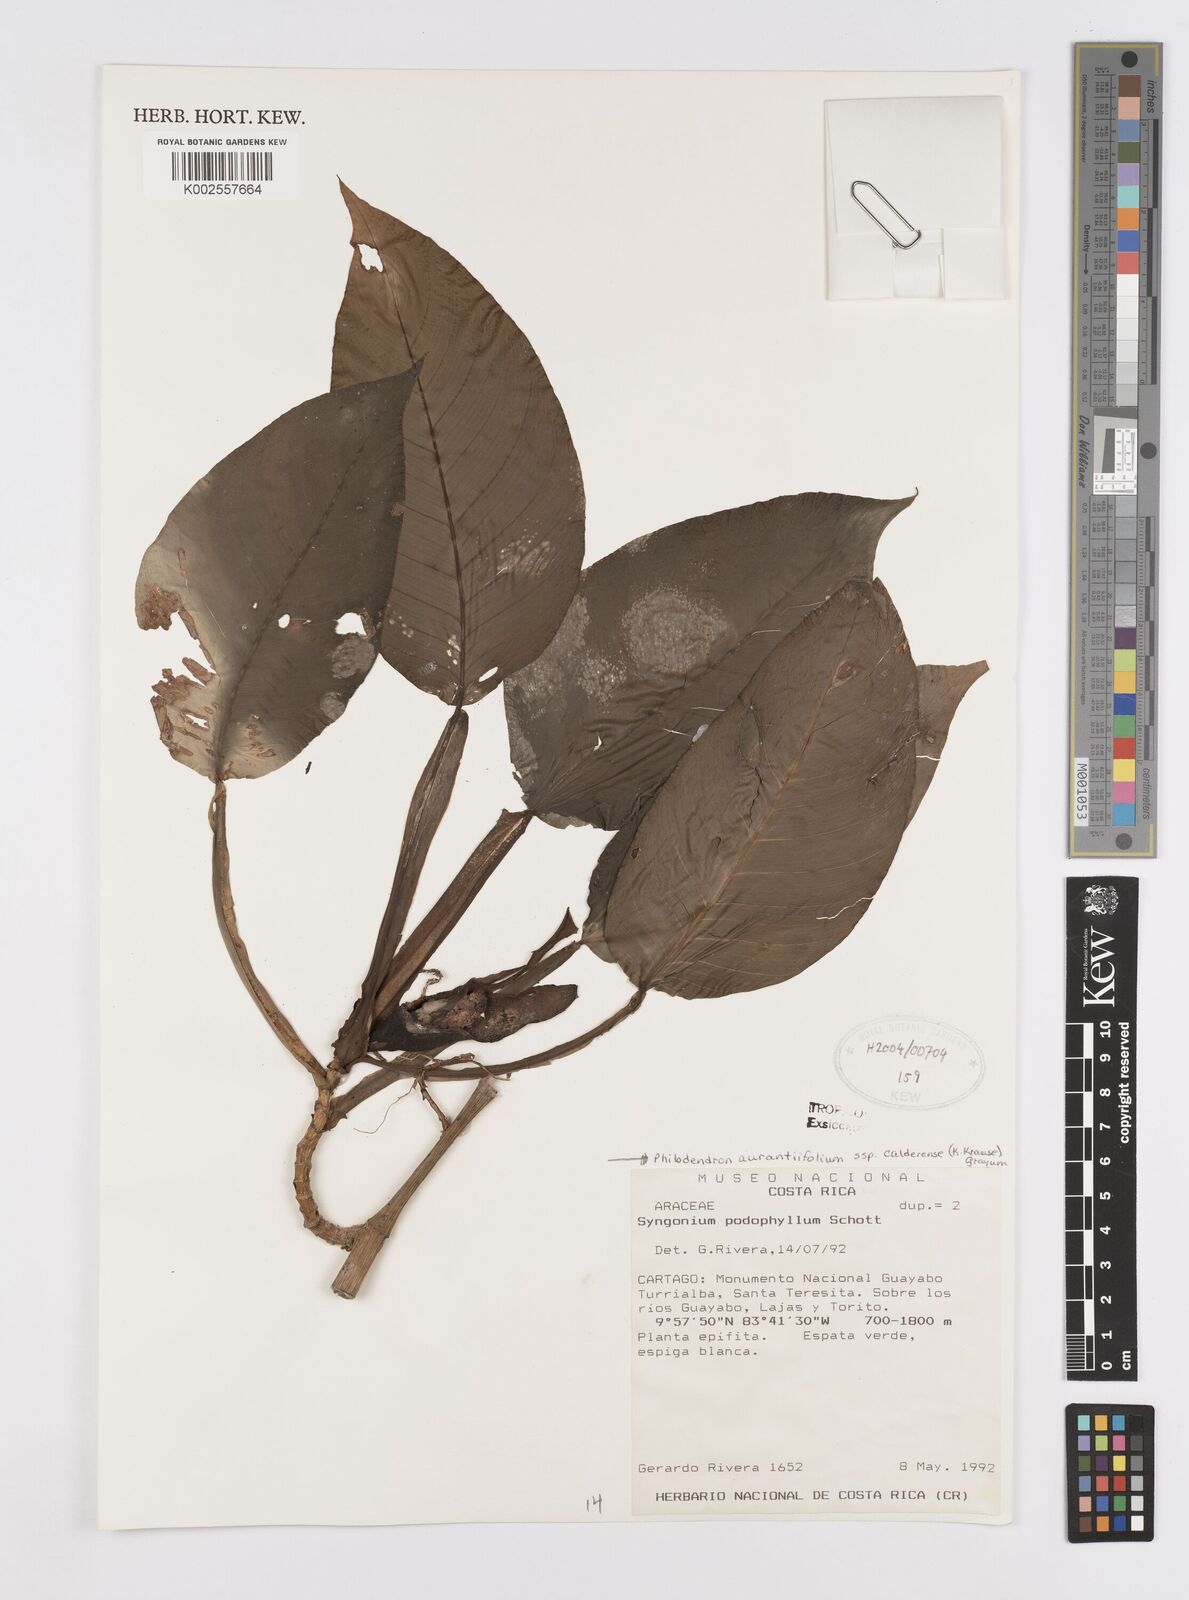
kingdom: Plantae
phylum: Tracheophyta
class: Liliopsida
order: Alismatales
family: Araceae
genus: Philodendron
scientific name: Philodendron aurantiifolium
